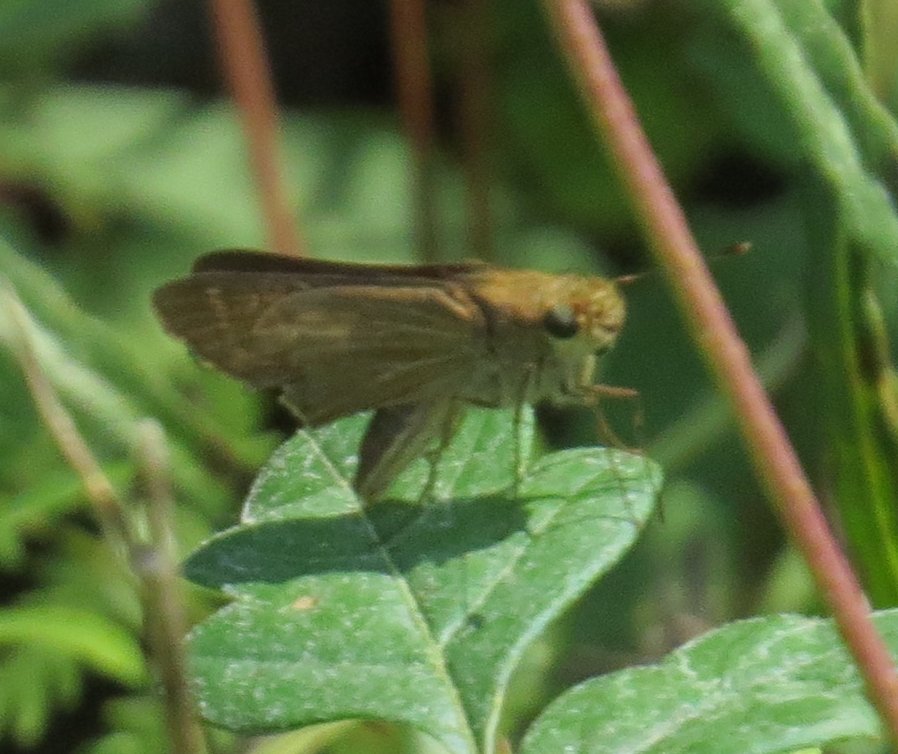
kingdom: Animalia
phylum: Arthropoda
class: Insecta
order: Lepidoptera
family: Hesperiidae
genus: Panoquina
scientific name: Panoquina ocola
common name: Ocola Skipper
